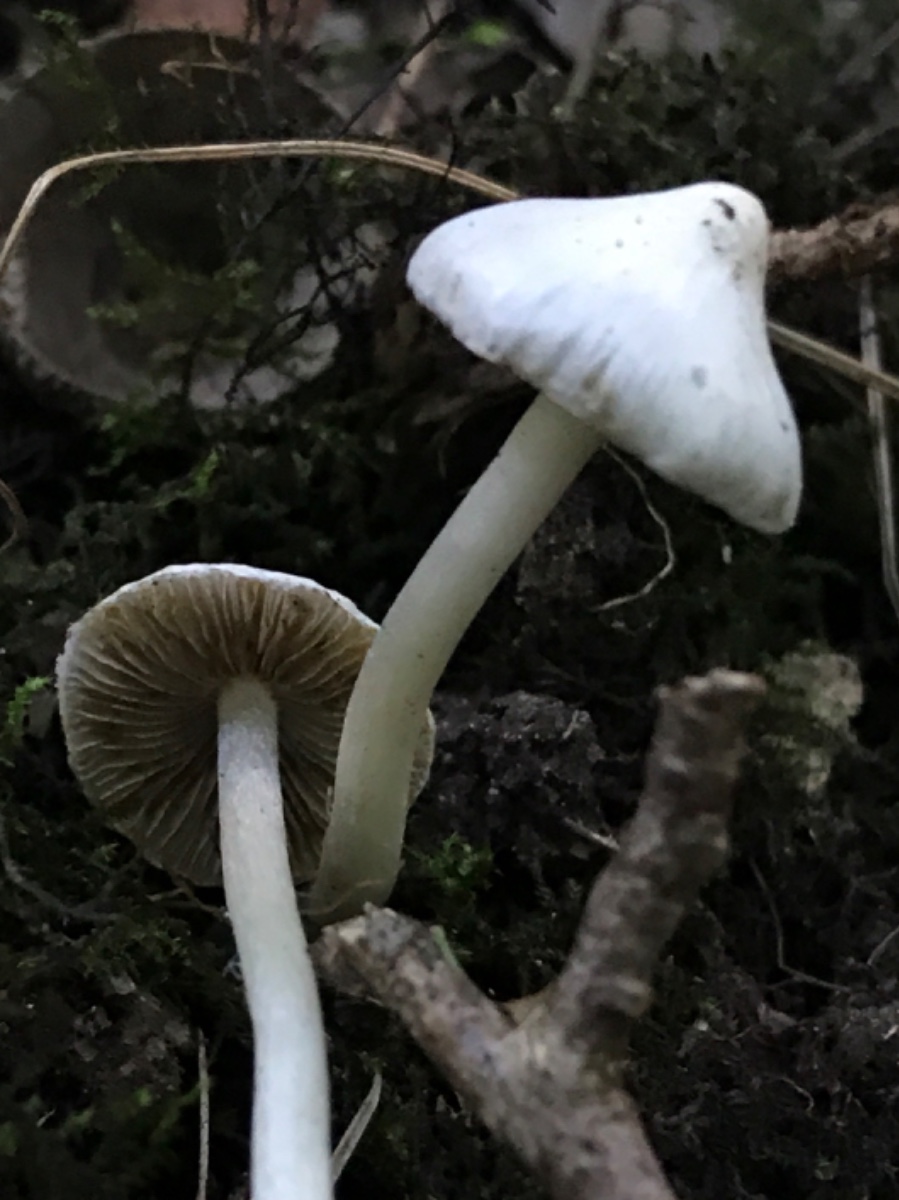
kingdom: Fungi
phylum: Basidiomycota
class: Agaricomycetes
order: Agaricales
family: Inocybaceae
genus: Inocybe
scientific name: Inocybe
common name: trævlhat
